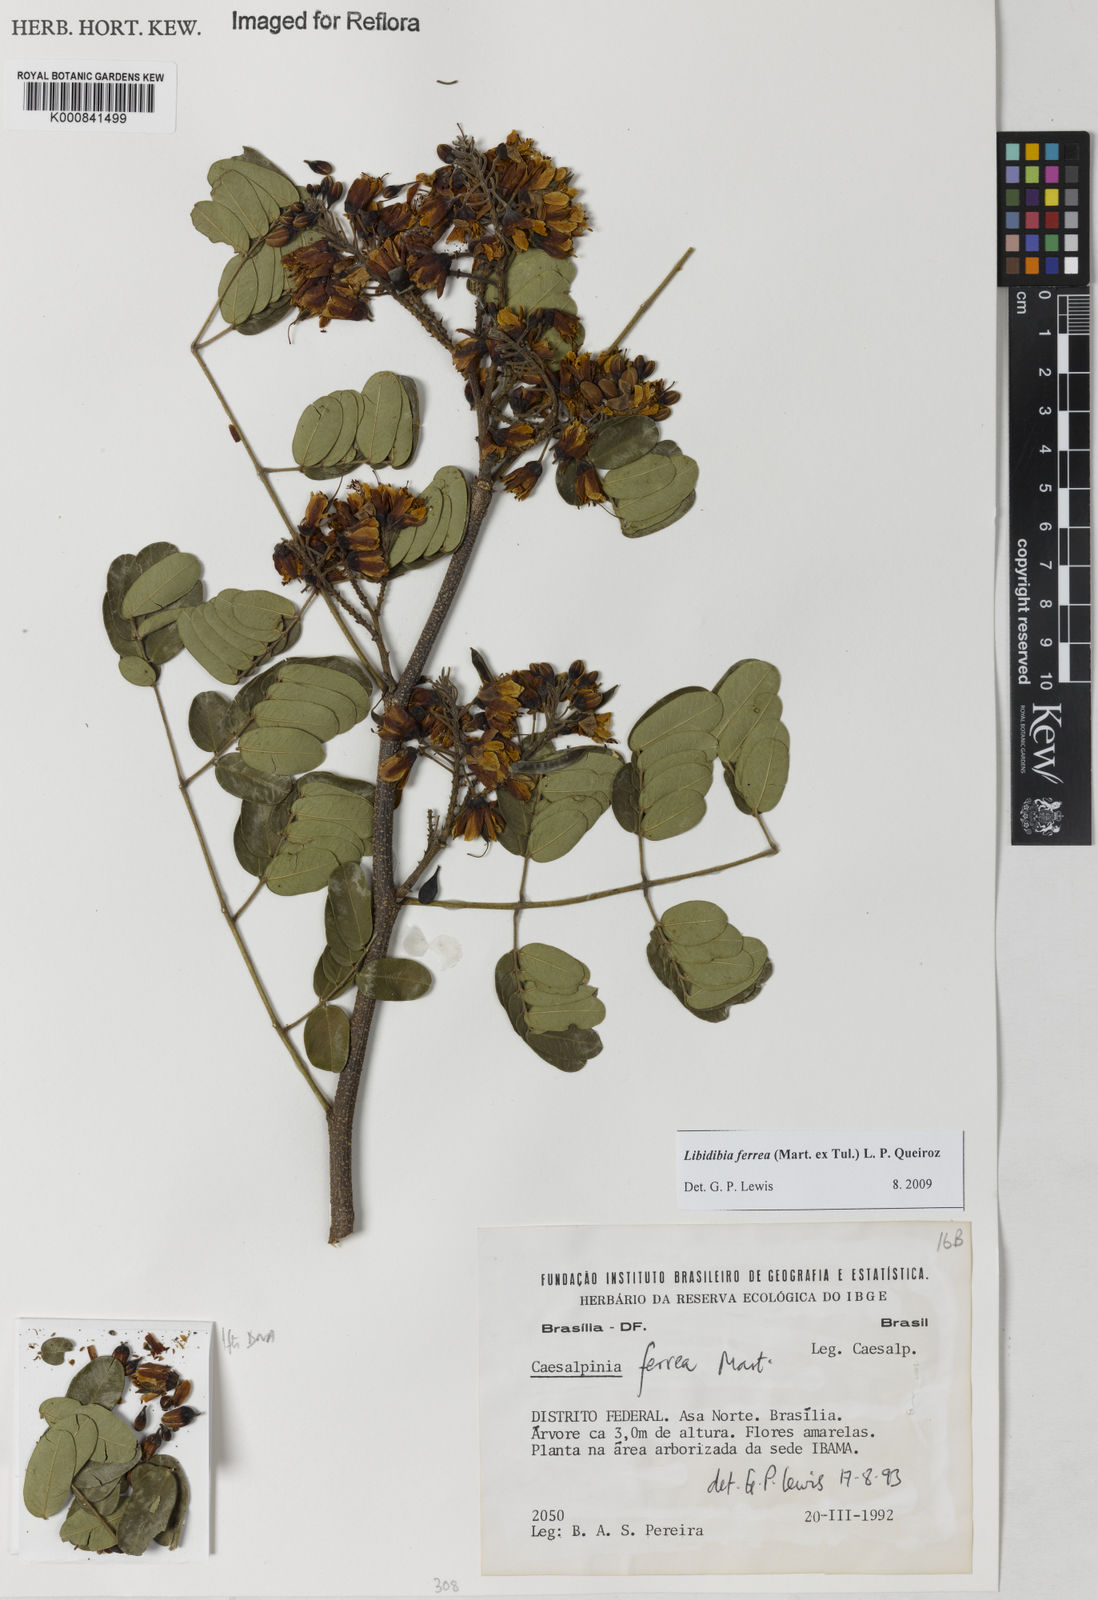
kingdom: Plantae
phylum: Tracheophyta
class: Magnoliopsida
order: Fabales
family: Fabaceae
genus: Libidibia
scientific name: Libidibia ferrea
